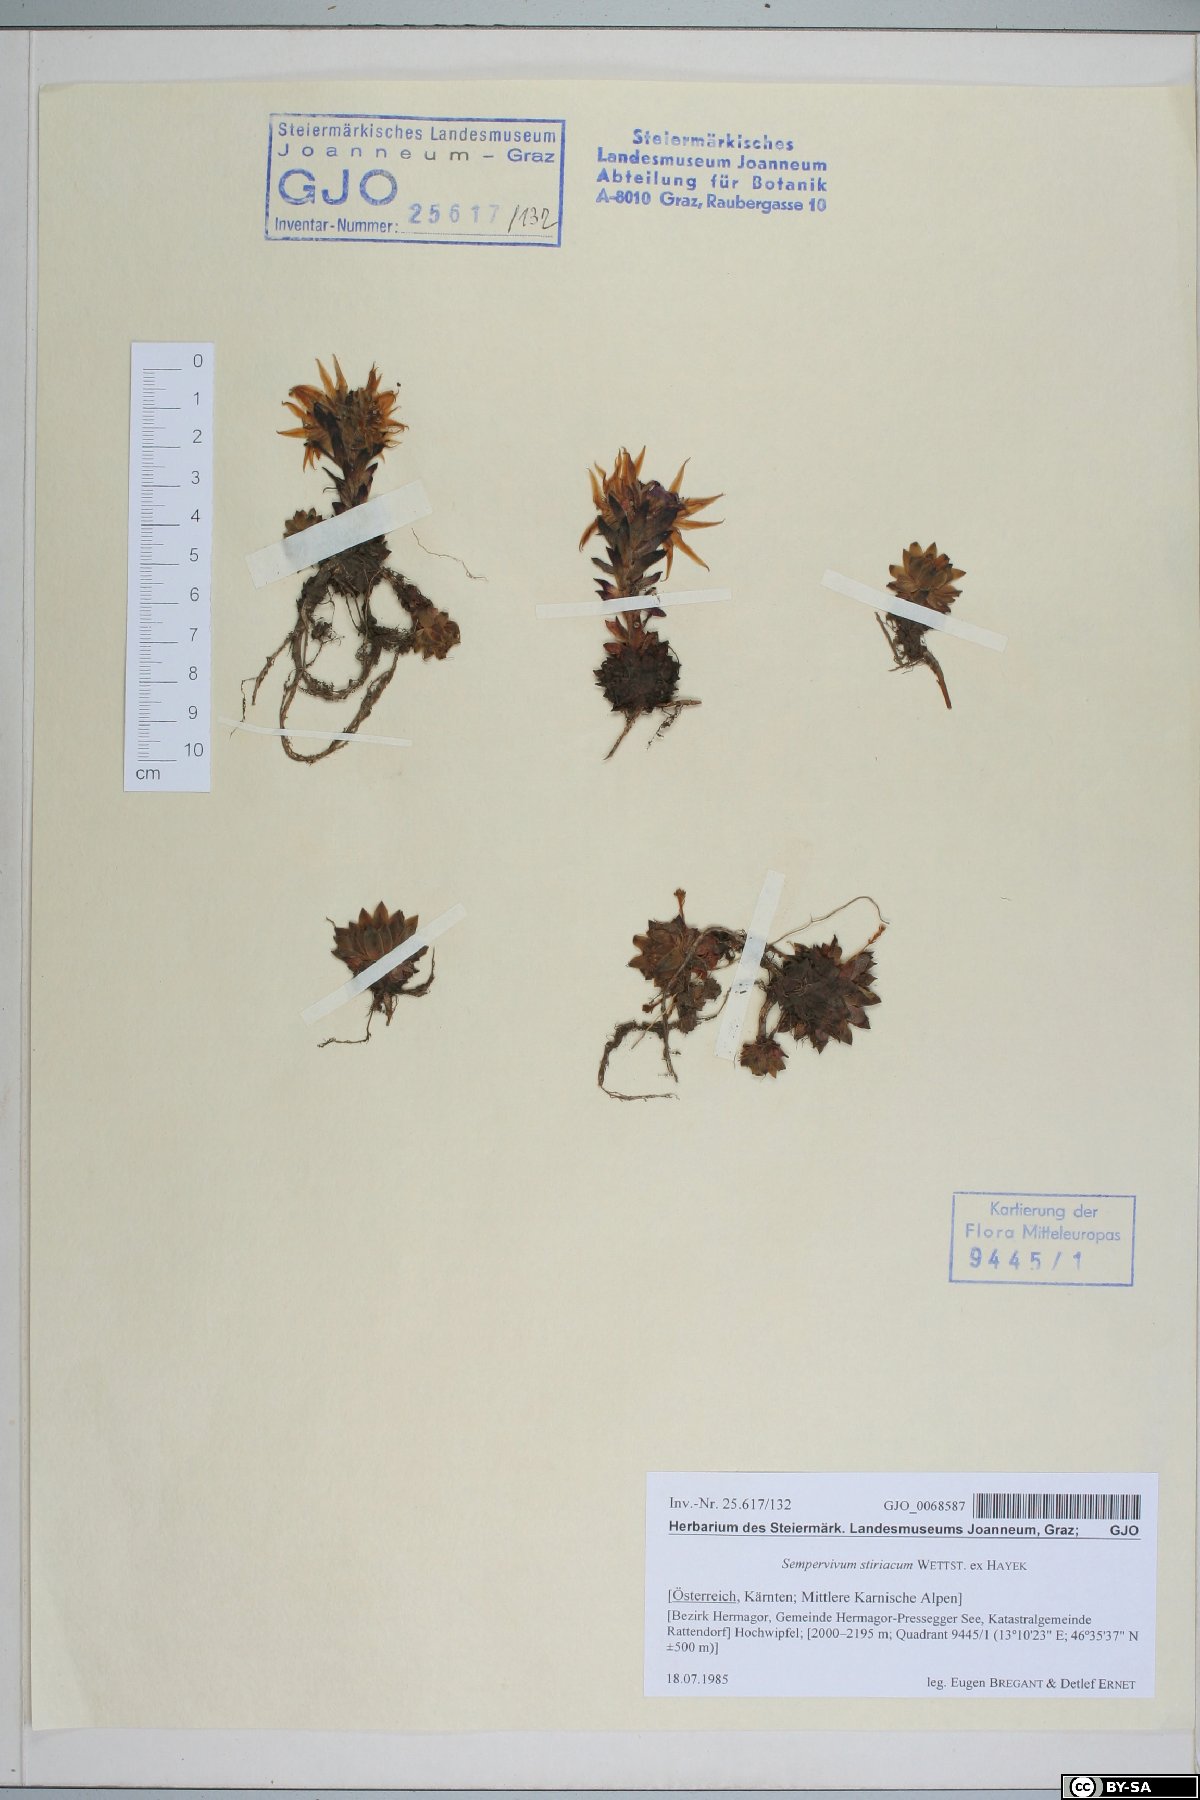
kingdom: Plantae
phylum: Tracheophyta
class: Magnoliopsida
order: Saxifragales
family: Crassulaceae
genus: Sempervivum
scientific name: Sempervivum montanum
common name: Mountain house-leek
